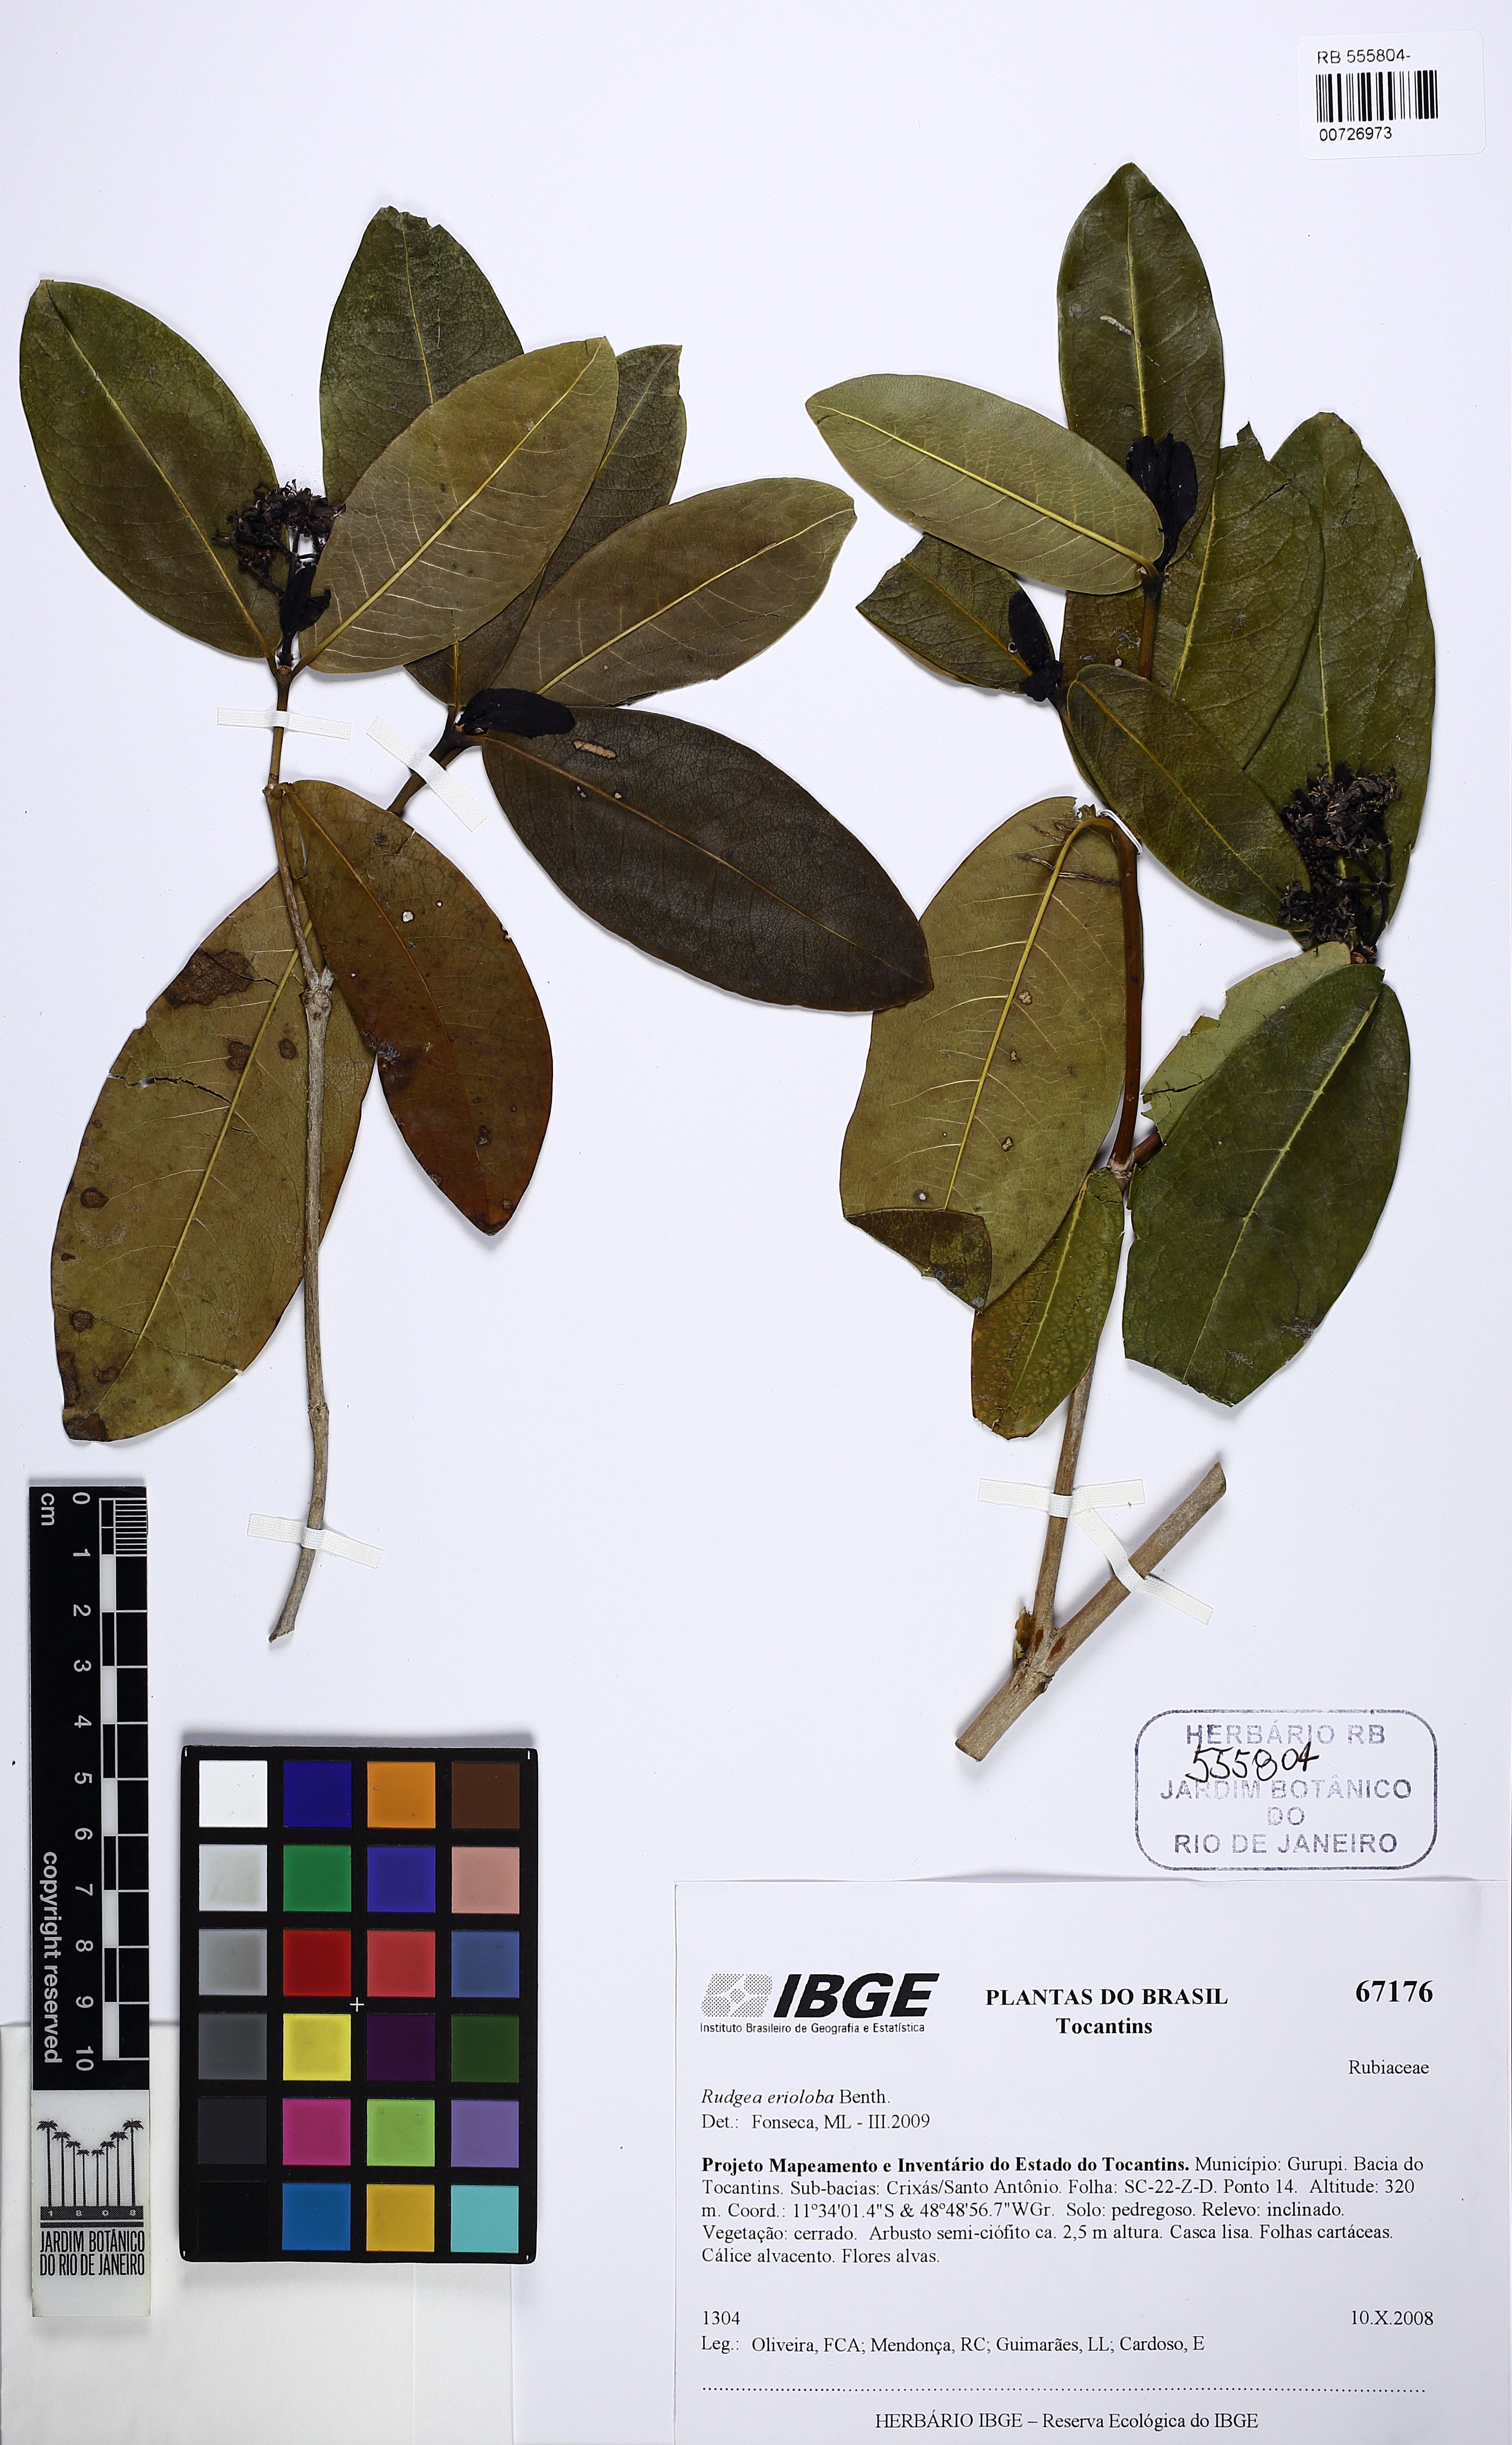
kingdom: Plantae
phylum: Tracheophyta
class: Magnoliopsida
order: Gentianales
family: Rubiaceae
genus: Rudgea
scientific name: Rudgea crassiloba
